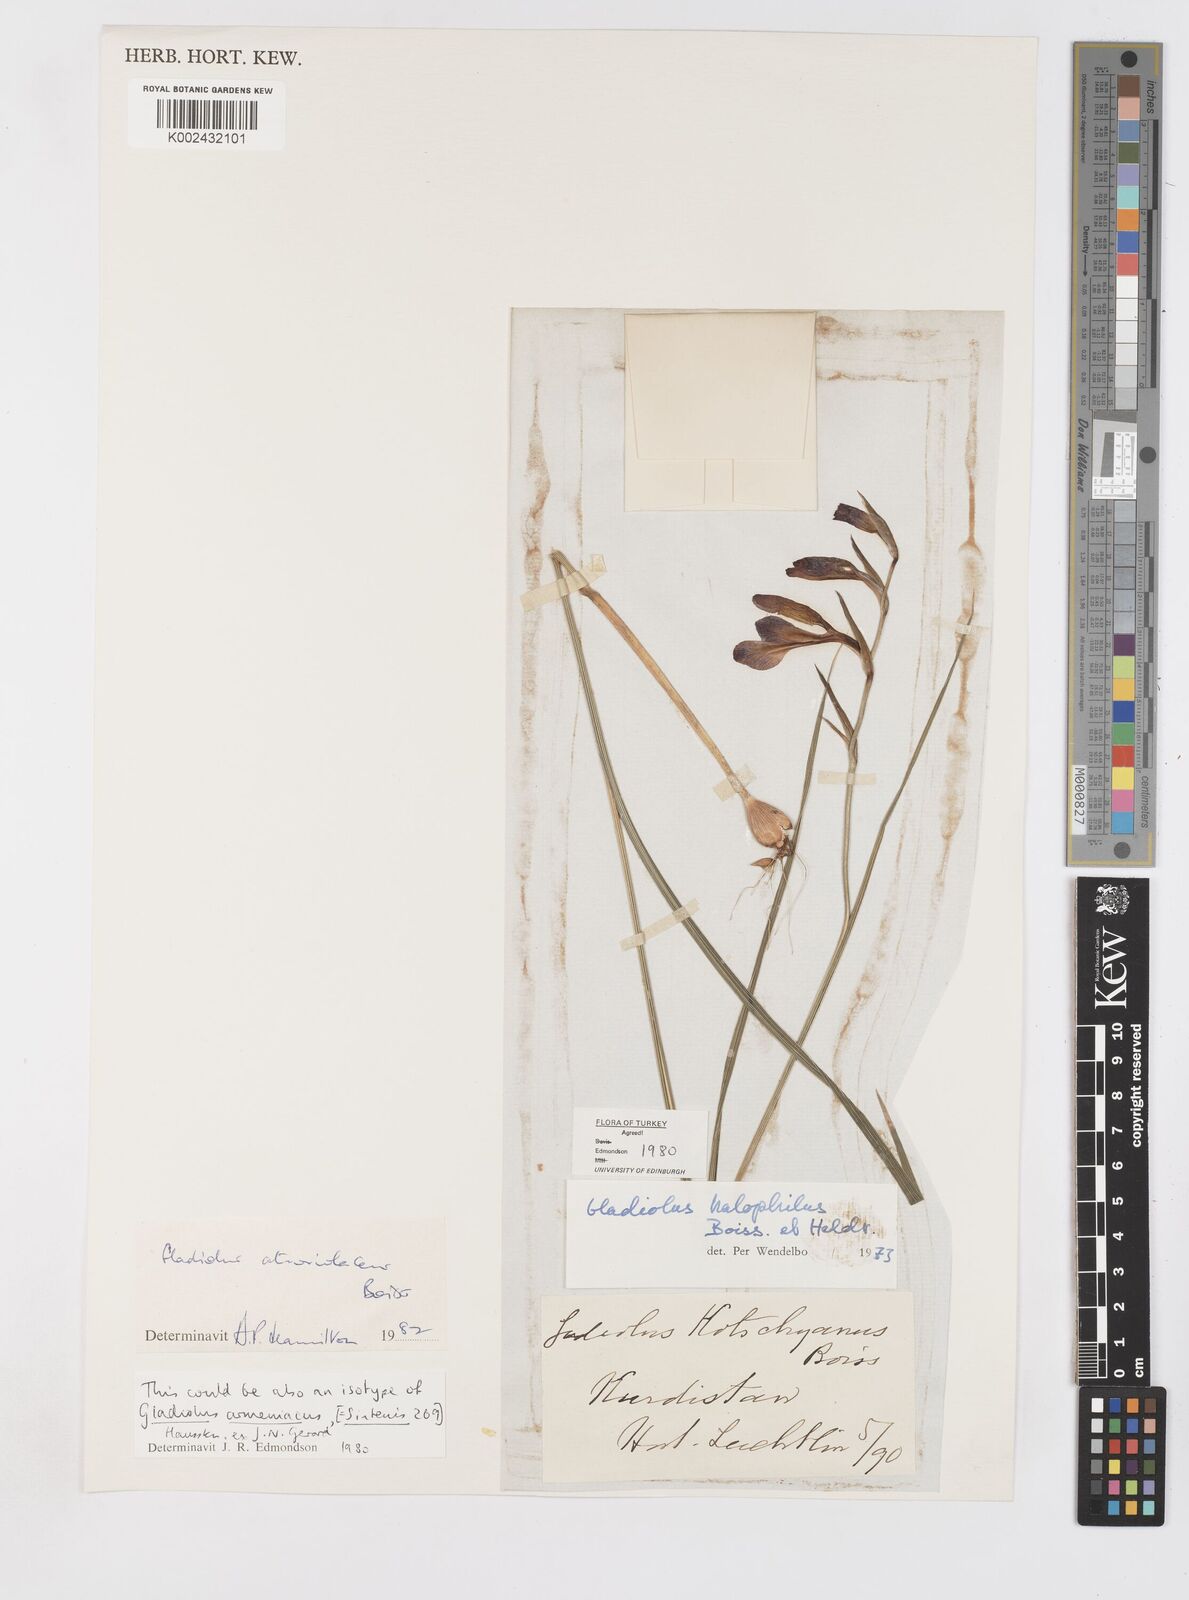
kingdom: Plantae
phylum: Tracheophyta
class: Liliopsida
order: Asparagales
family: Iridaceae
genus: Gladiolus
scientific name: Gladiolus atroviolaceus
